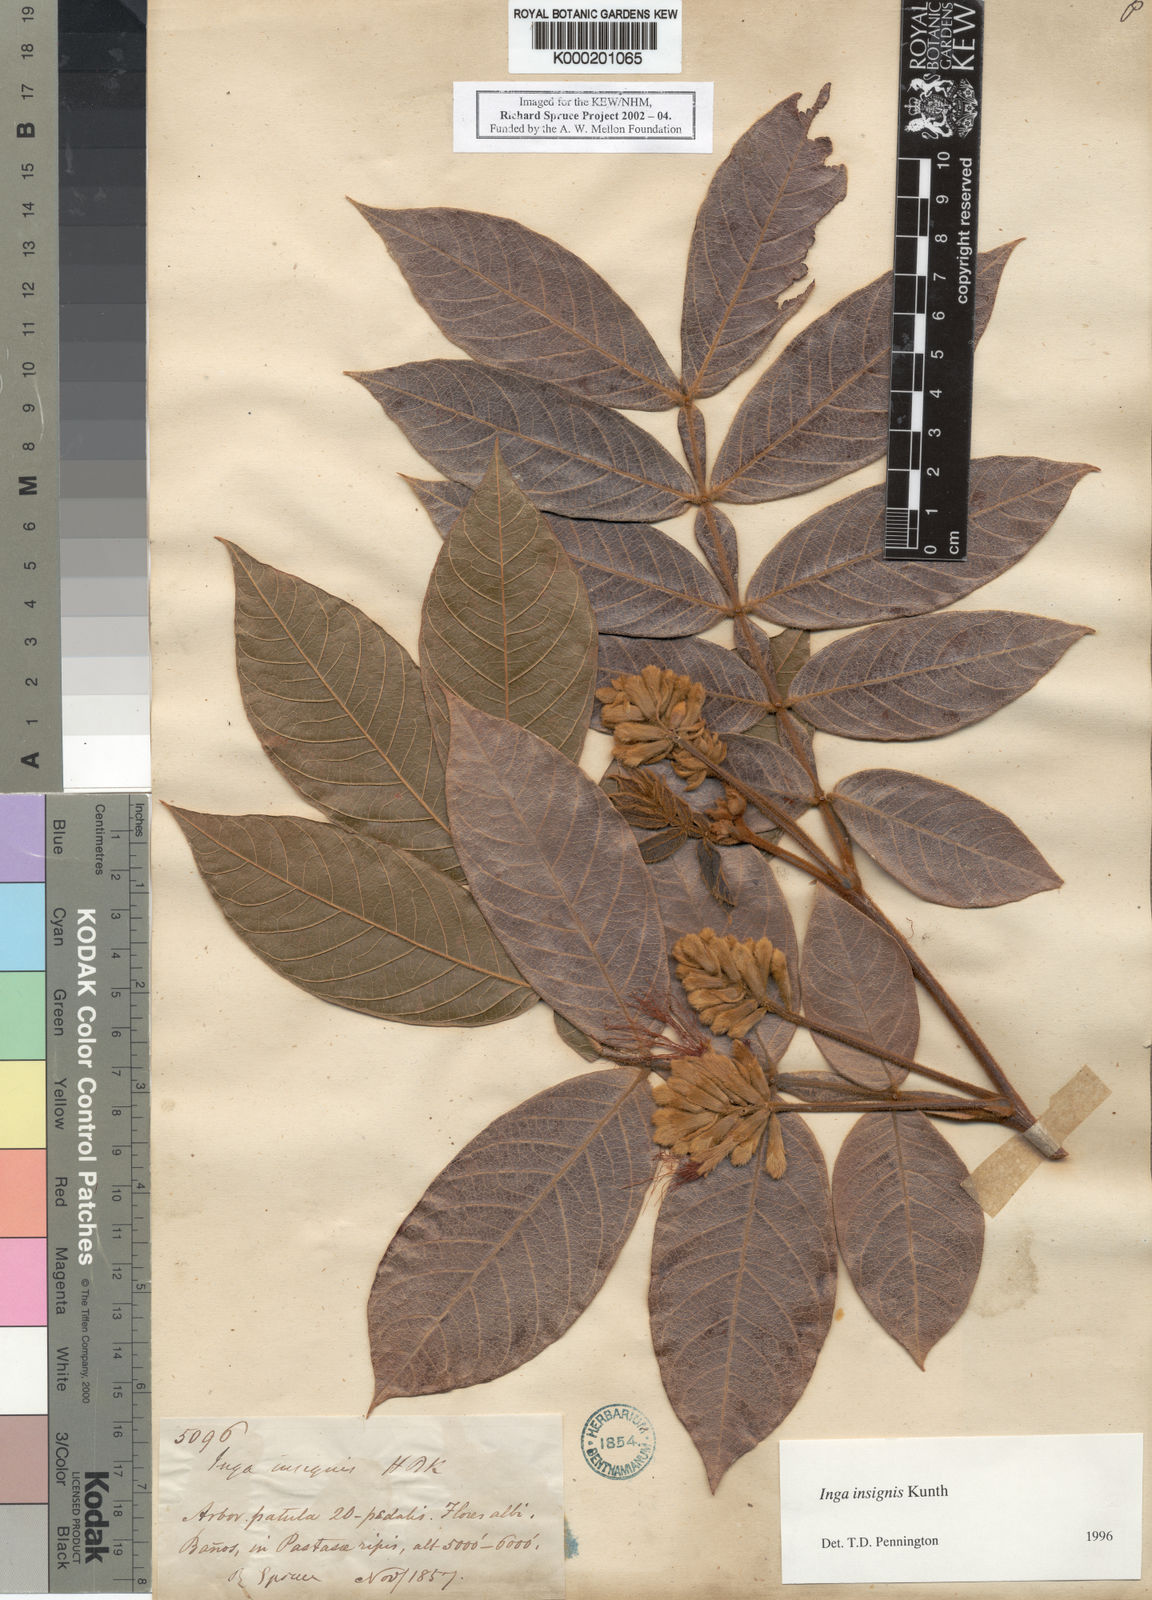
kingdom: Plantae
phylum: Tracheophyta
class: Magnoliopsida
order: Fabales
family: Fabaceae
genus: Inga
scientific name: Inga insignis
